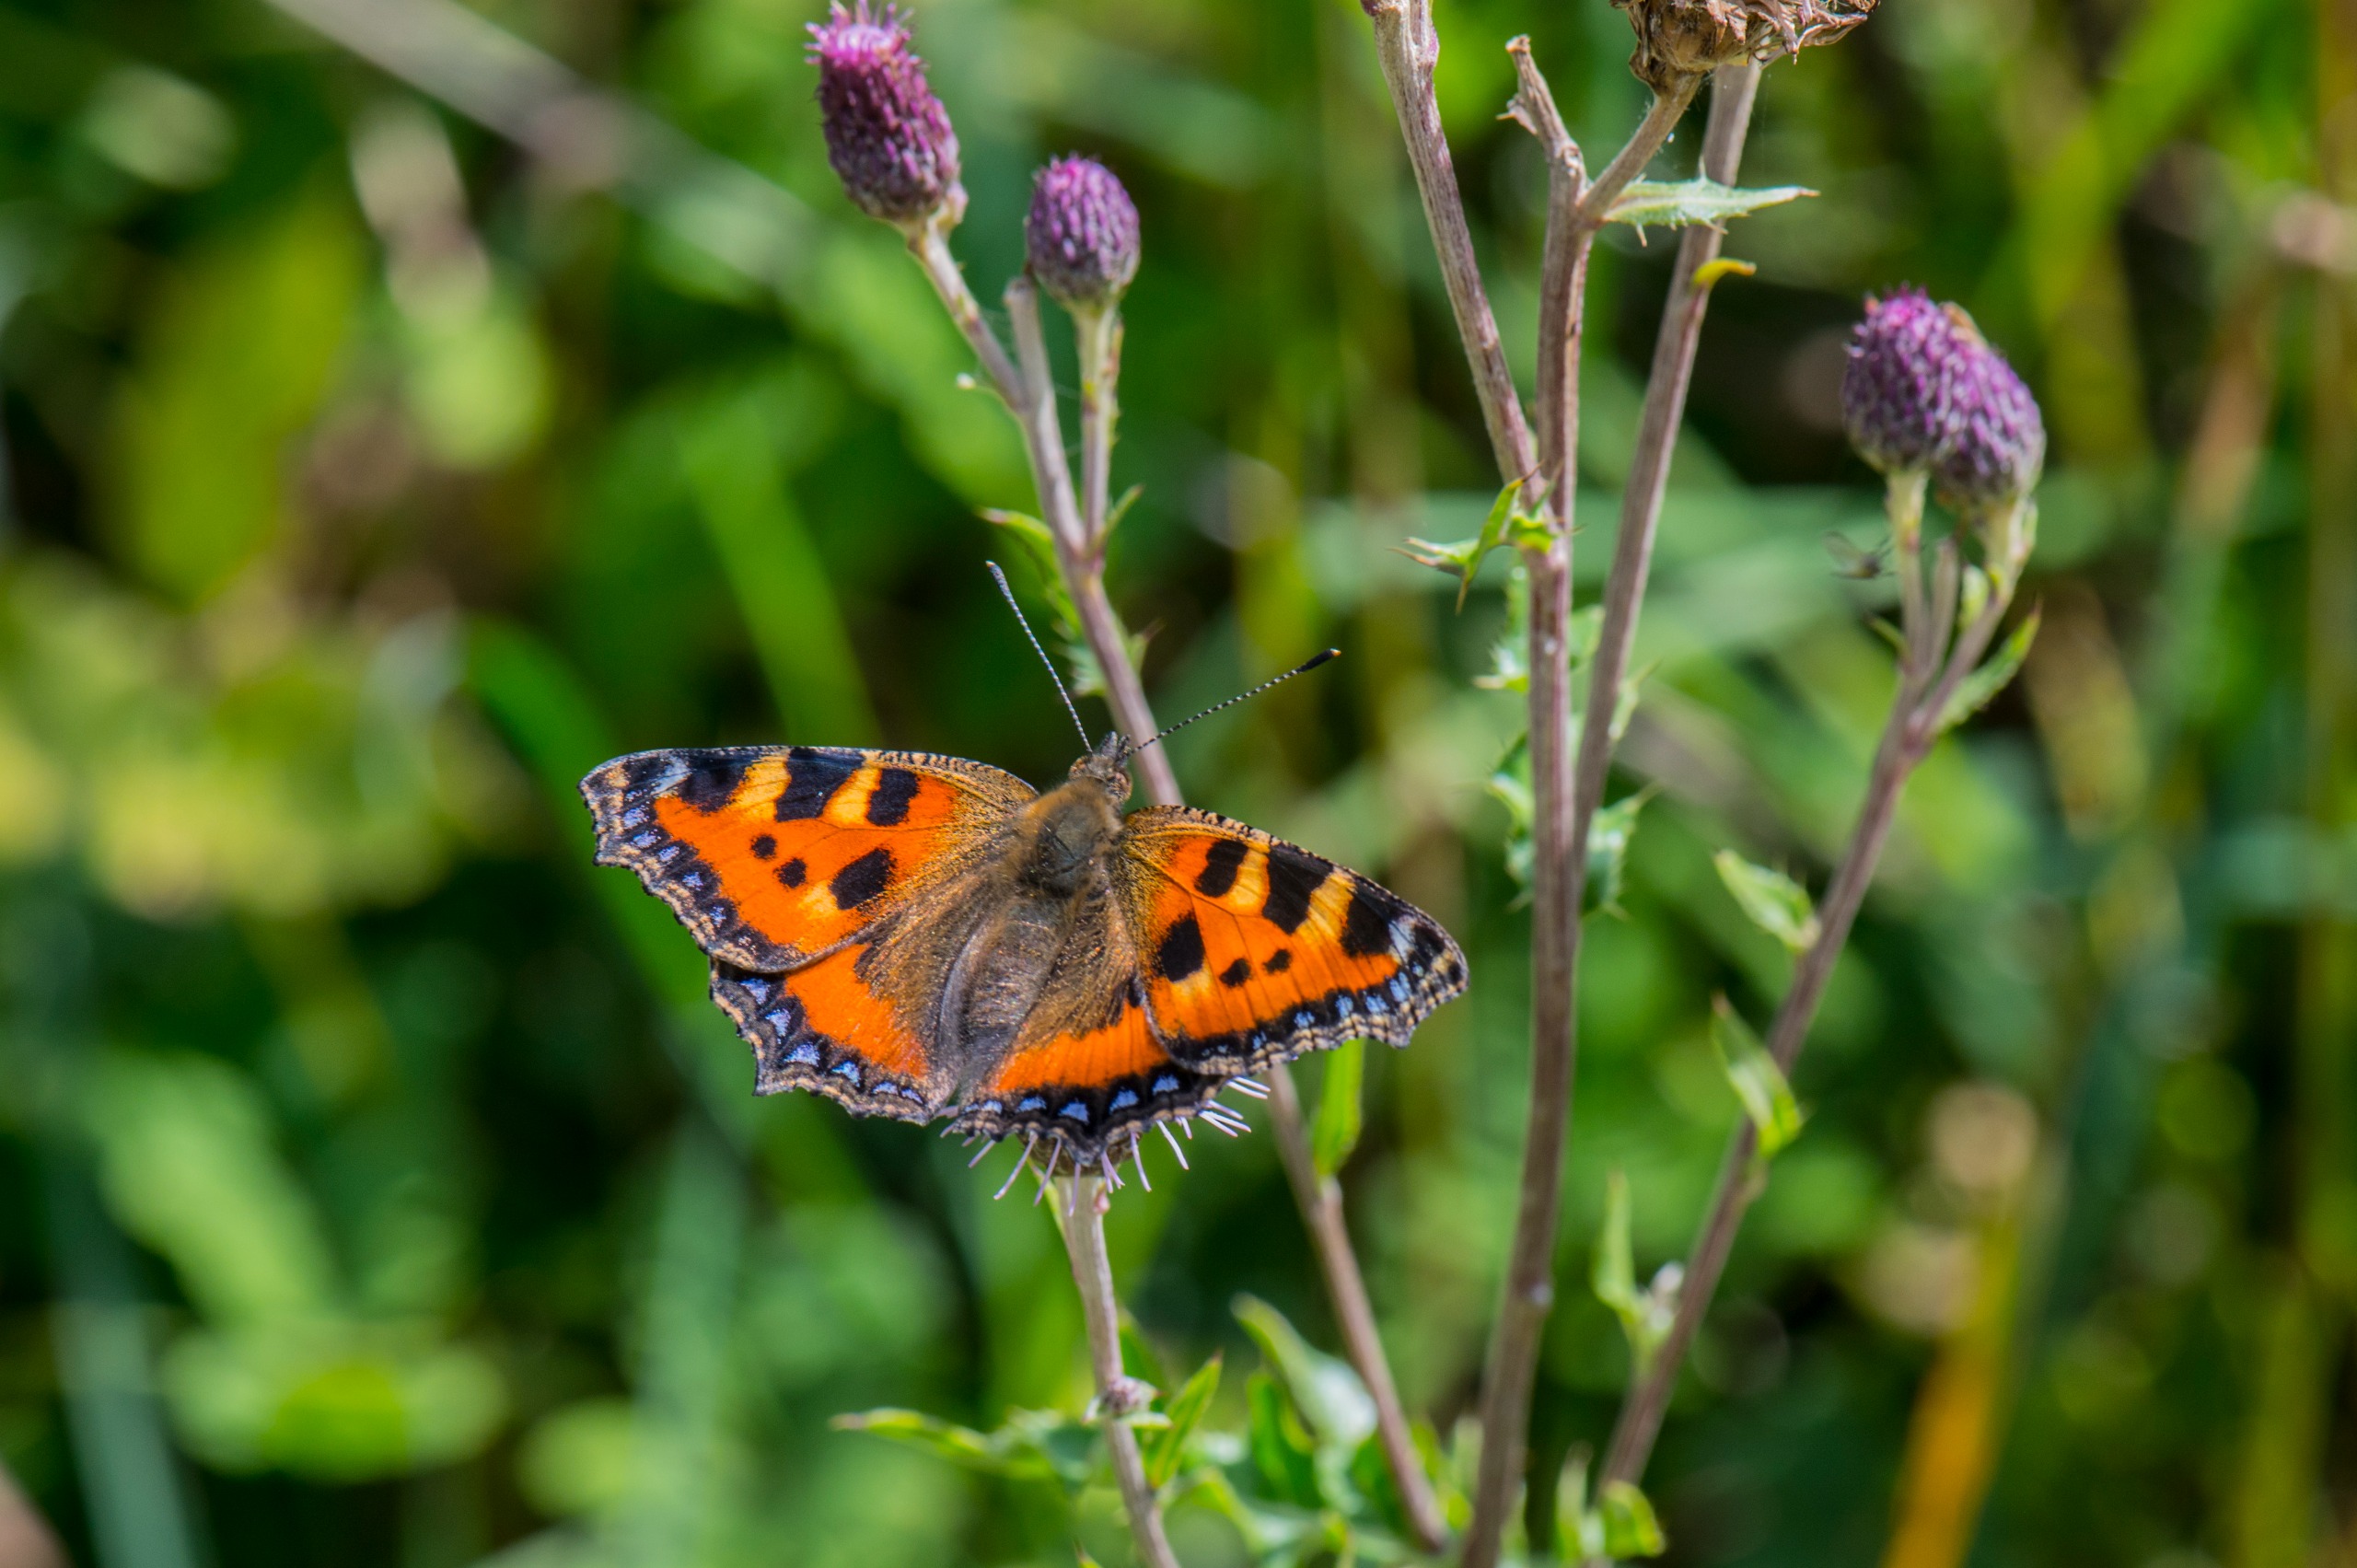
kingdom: Animalia
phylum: Arthropoda
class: Insecta
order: Lepidoptera
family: Nymphalidae
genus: Aglais
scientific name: Aglais urticae
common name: Nældens takvinge
